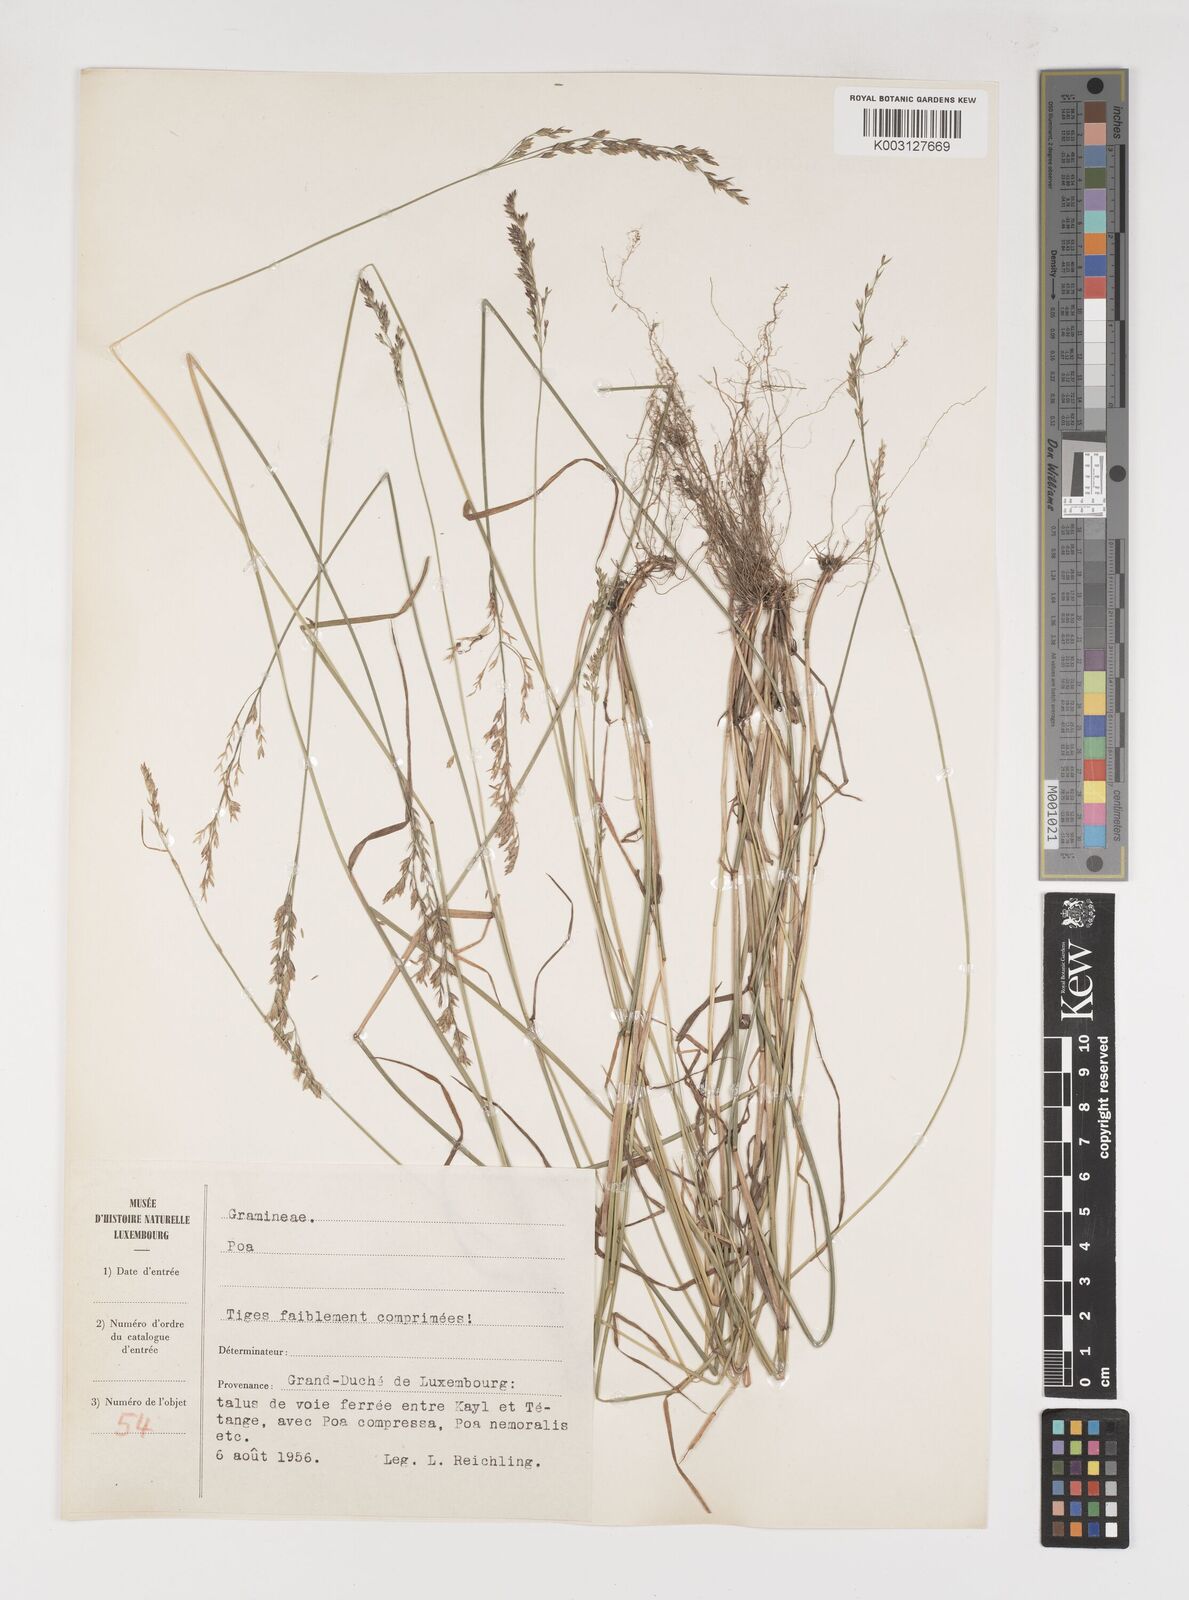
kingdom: Plantae
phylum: Tracheophyta
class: Liliopsida
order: Poales
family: Poaceae
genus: Poa
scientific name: Poa
